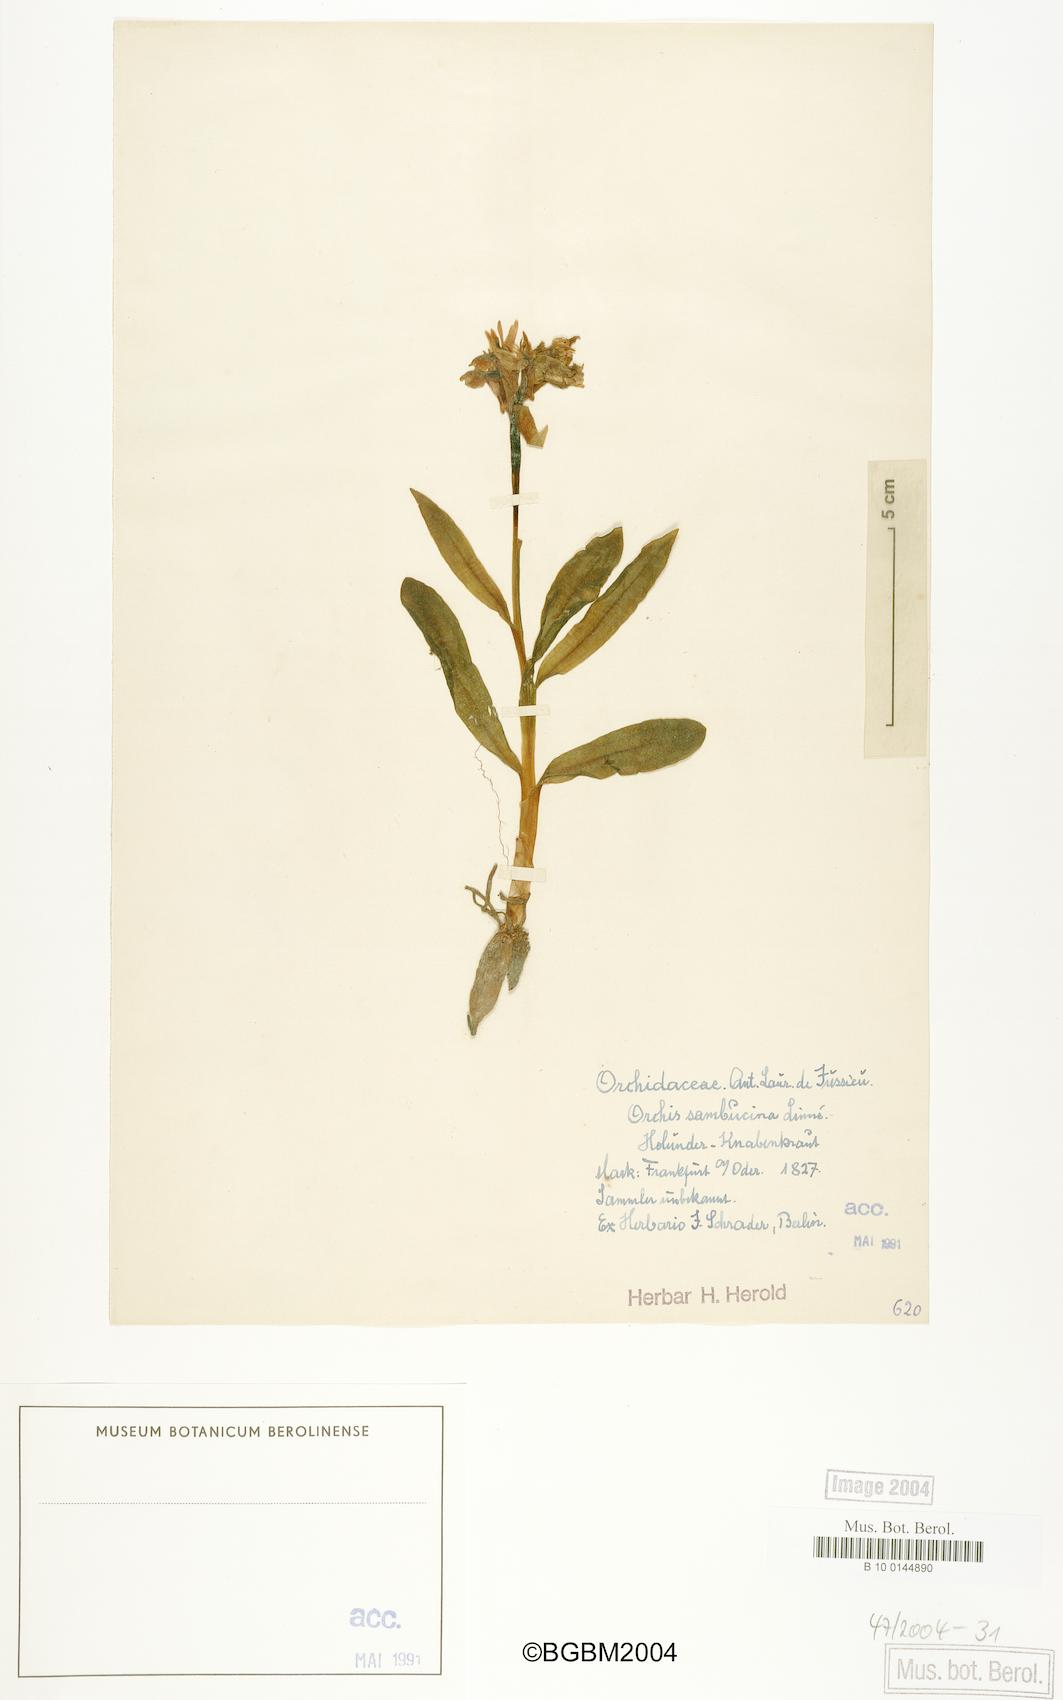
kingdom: Plantae
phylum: Tracheophyta
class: Liliopsida
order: Asparagales
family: Orchidaceae
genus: Dactylorhiza
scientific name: Dactylorhiza sambucina
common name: Elder-flowered orchid
